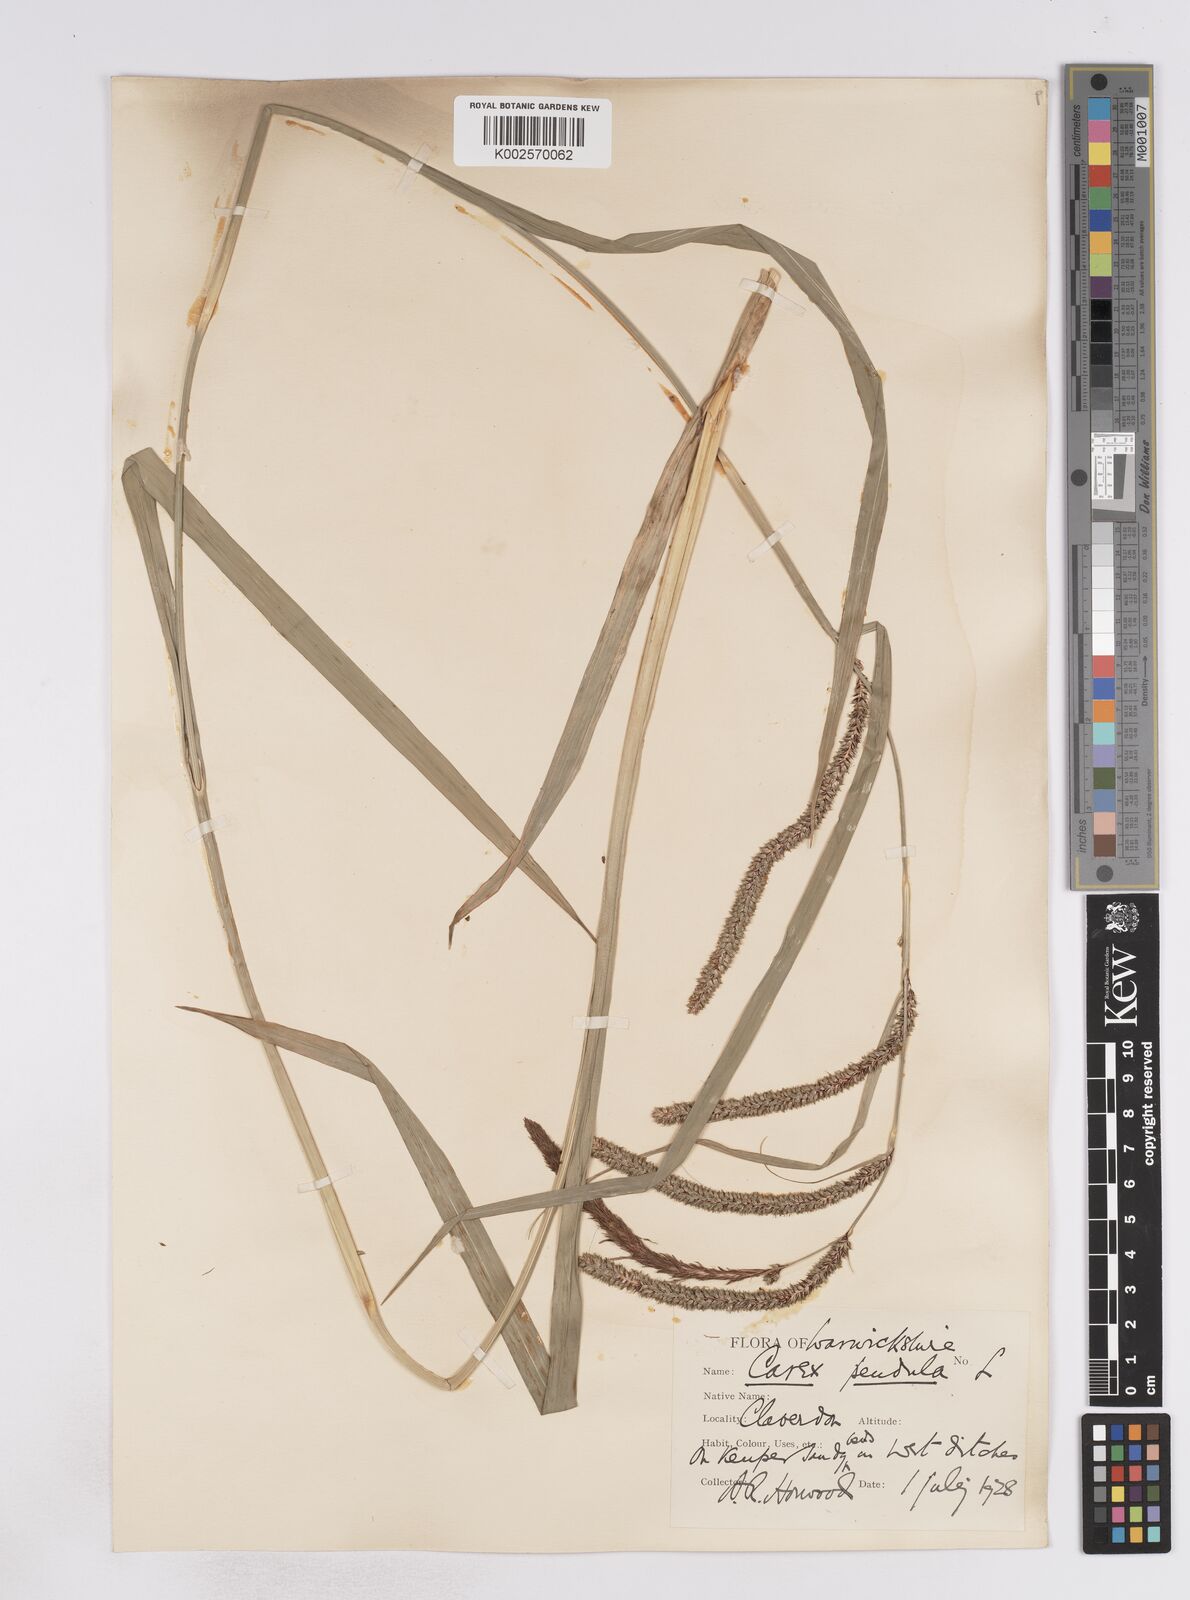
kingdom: Plantae
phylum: Tracheophyta
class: Liliopsida
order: Poales
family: Cyperaceae
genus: Carex
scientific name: Carex pendula
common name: Pendulous sedge
